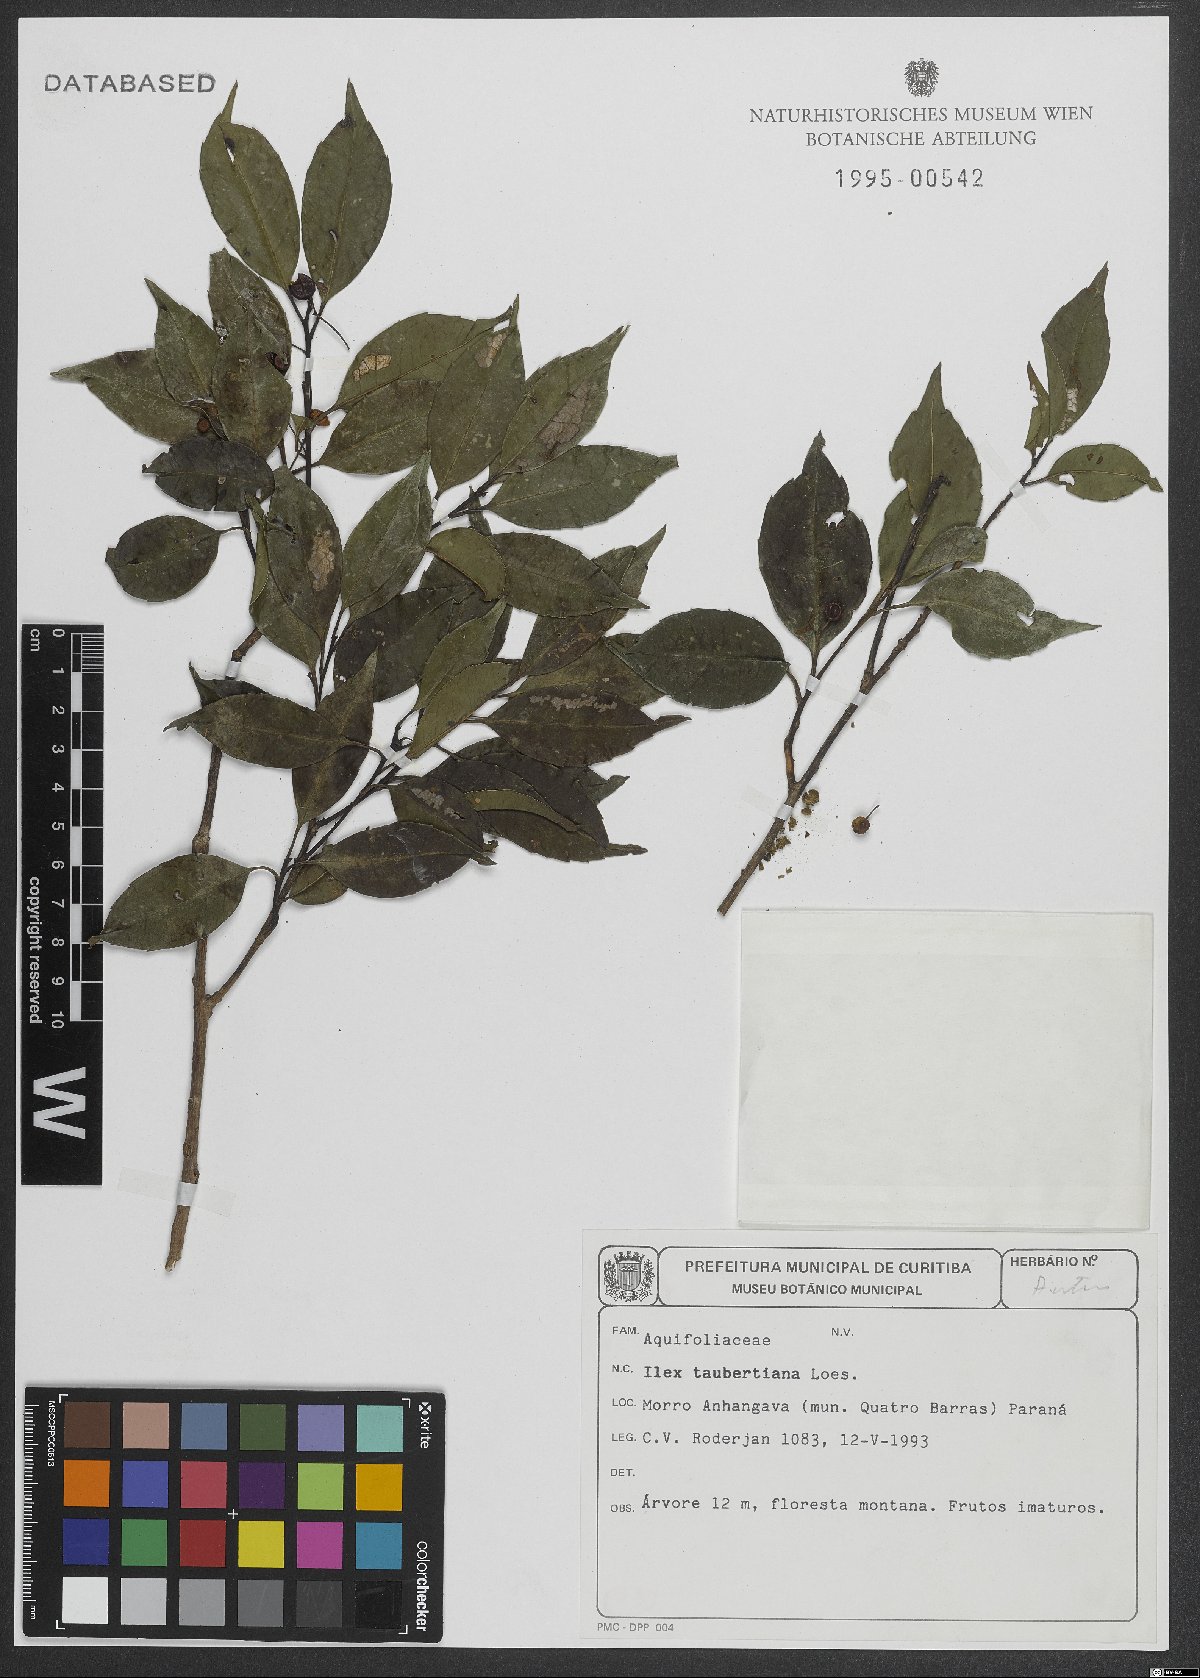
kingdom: Plantae
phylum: Tracheophyta
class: Magnoliopsida
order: Aquifoliales
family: Aquifoliaceae
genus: Ilex
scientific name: Ilex taubertiana
